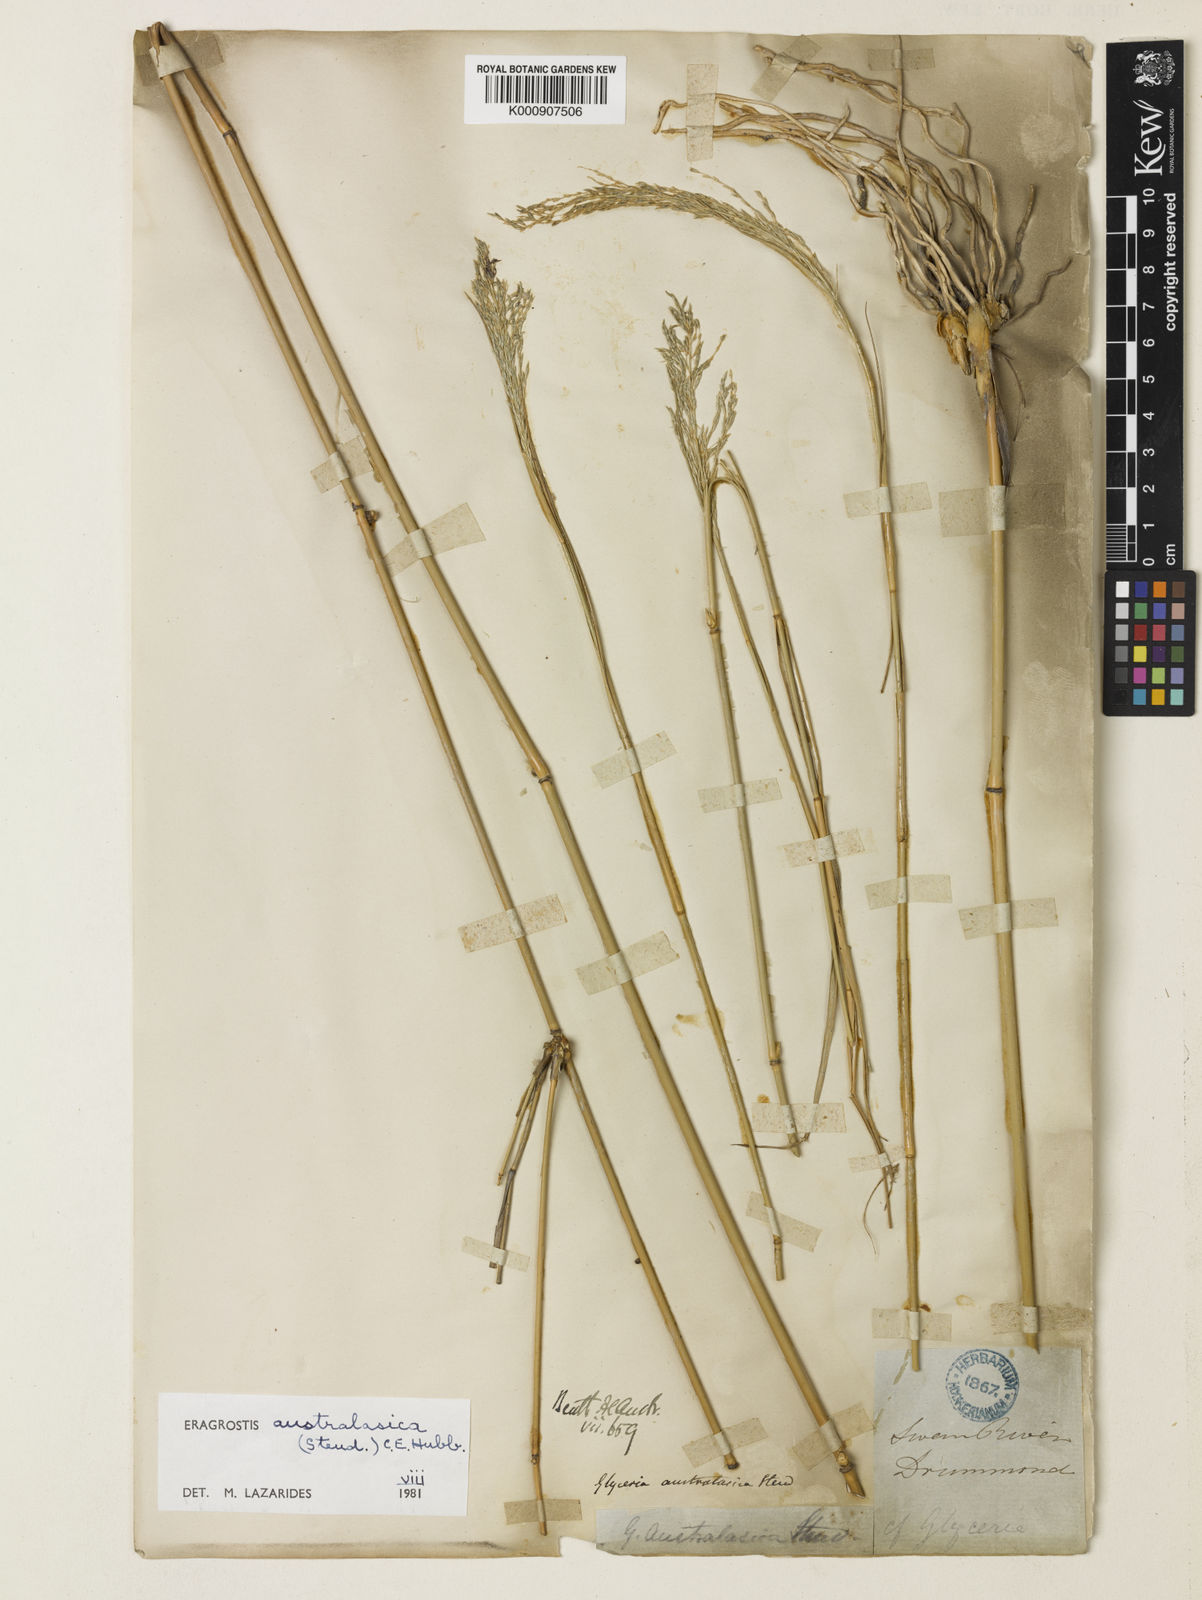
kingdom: Plantae
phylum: Tracheophyta
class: Liliopsida
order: Poales
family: Poaceae
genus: Sporobolus
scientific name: Sporobolus ramigerus
